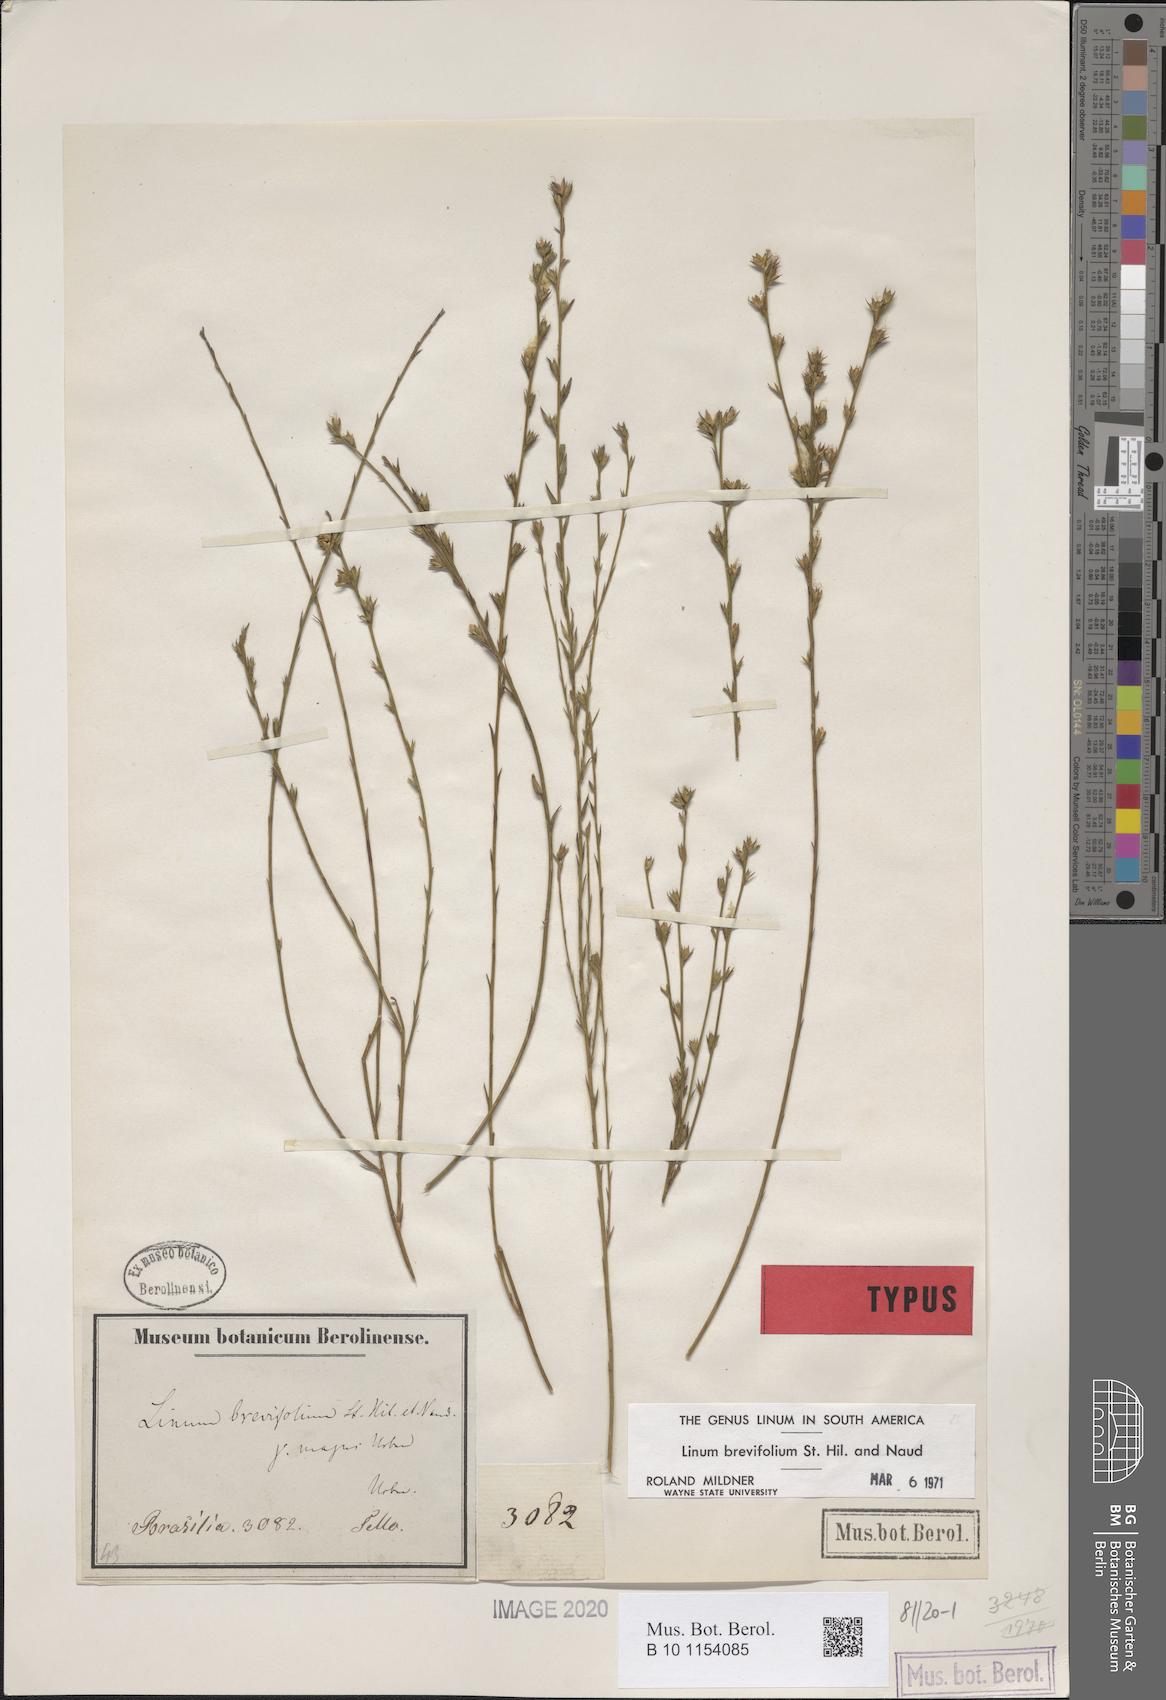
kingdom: Plantae
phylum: Tracheophyta
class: Magnoliopsida
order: Malpighiales
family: Linaceae
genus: Linum
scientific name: Linum brevifolium
